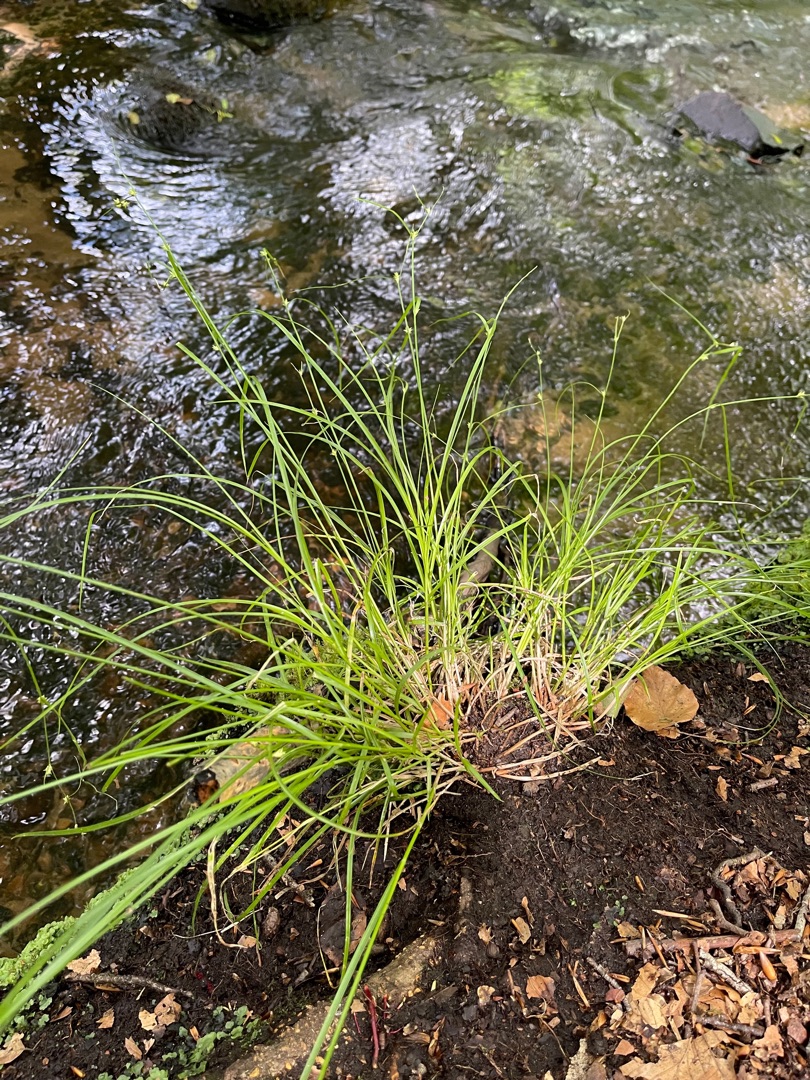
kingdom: Plantae
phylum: Tracheophyta
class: Liliopsida
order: Poales
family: Cyperaceae
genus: Carex
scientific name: Carex remota
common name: Akselblomstret star
